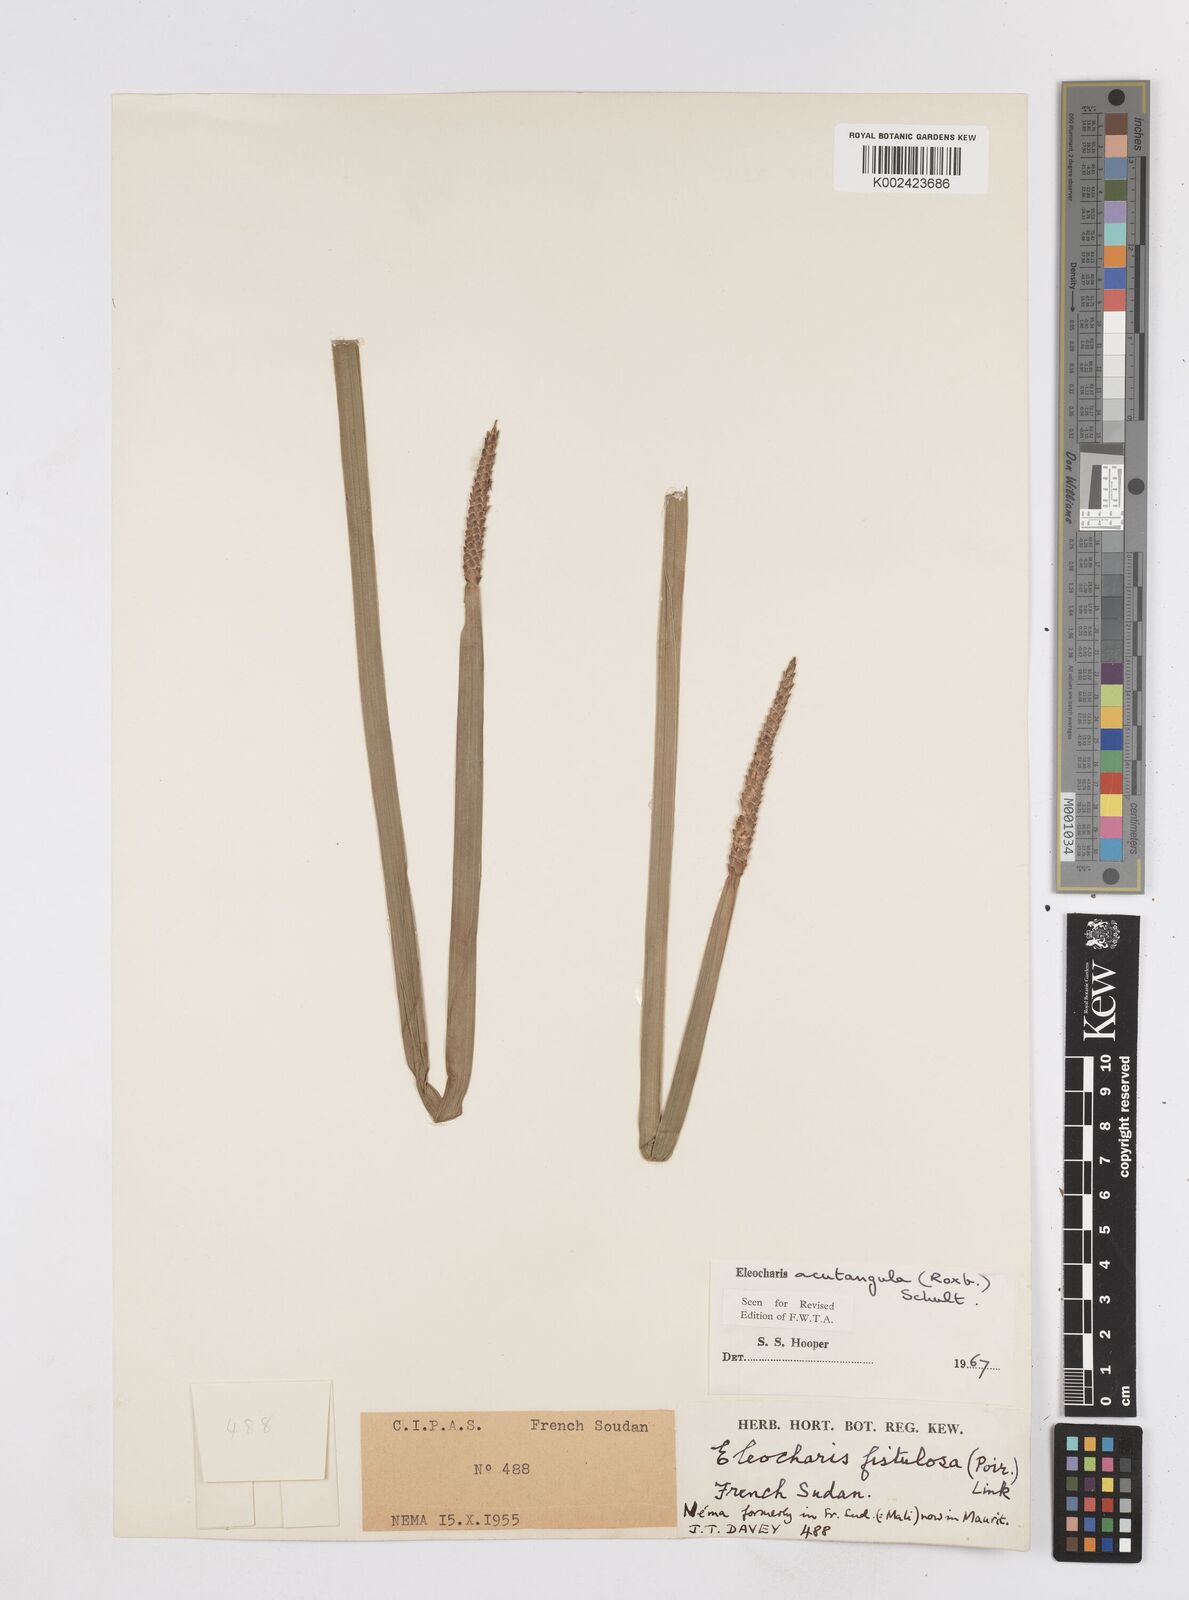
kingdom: Plantae
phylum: Tracheophyta
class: Liliopsida
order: Poales
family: Cyperaceae
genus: Eleocharis
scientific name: Eleocharis
